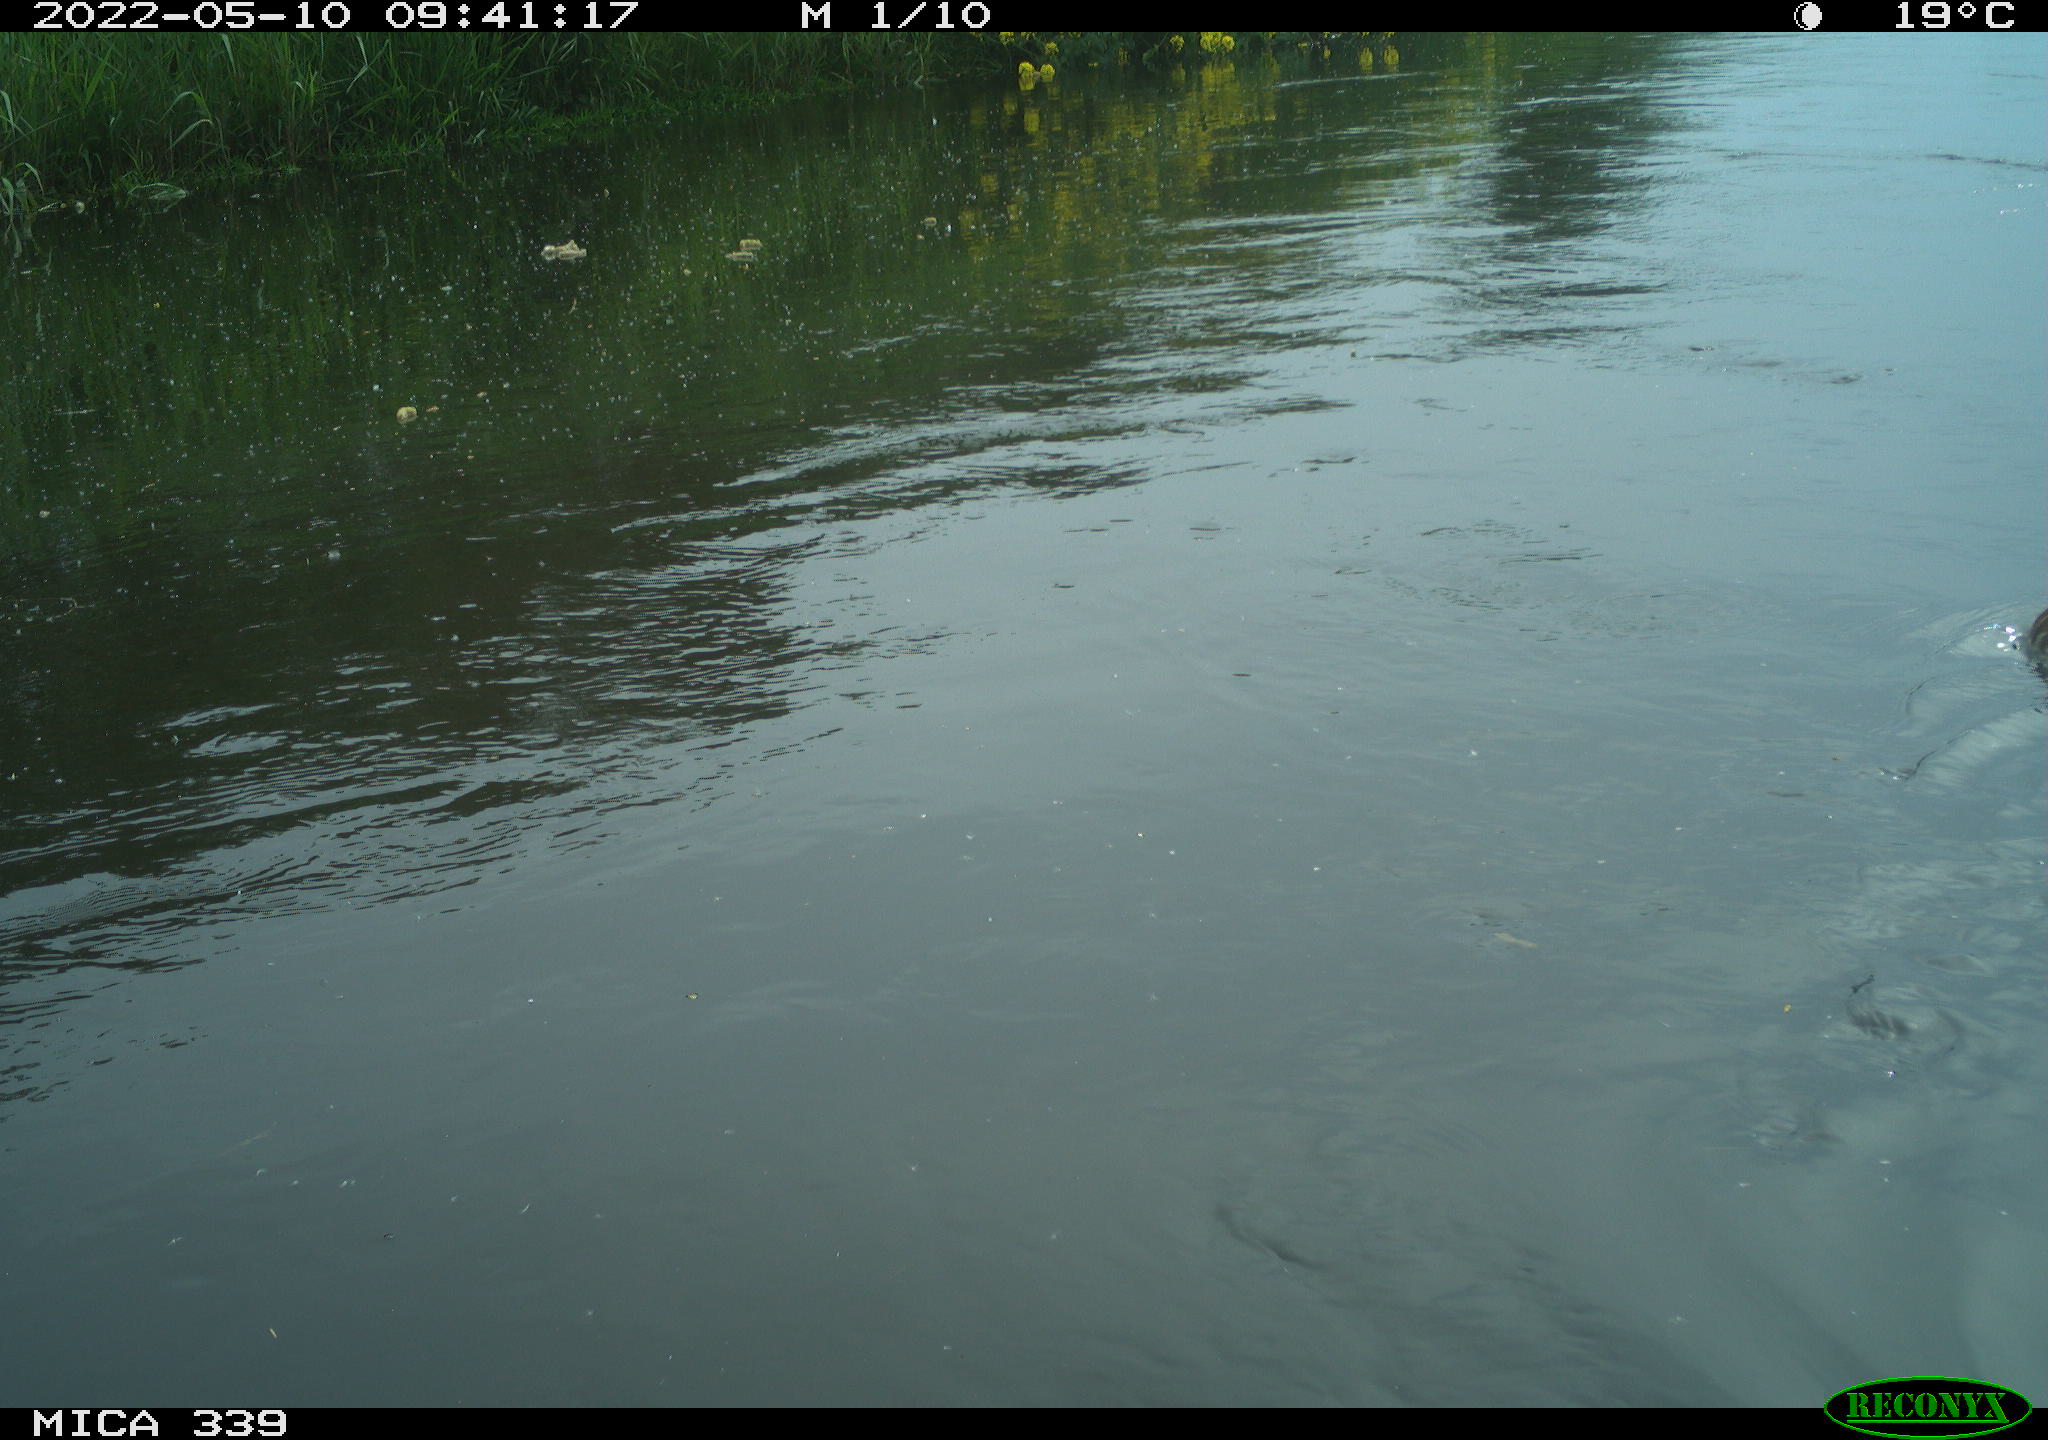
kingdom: Animalia
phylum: Chordata
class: Aves
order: Anseriformes
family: Anatidae
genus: Anas
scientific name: Anas platyrhynchos
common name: Mallard
